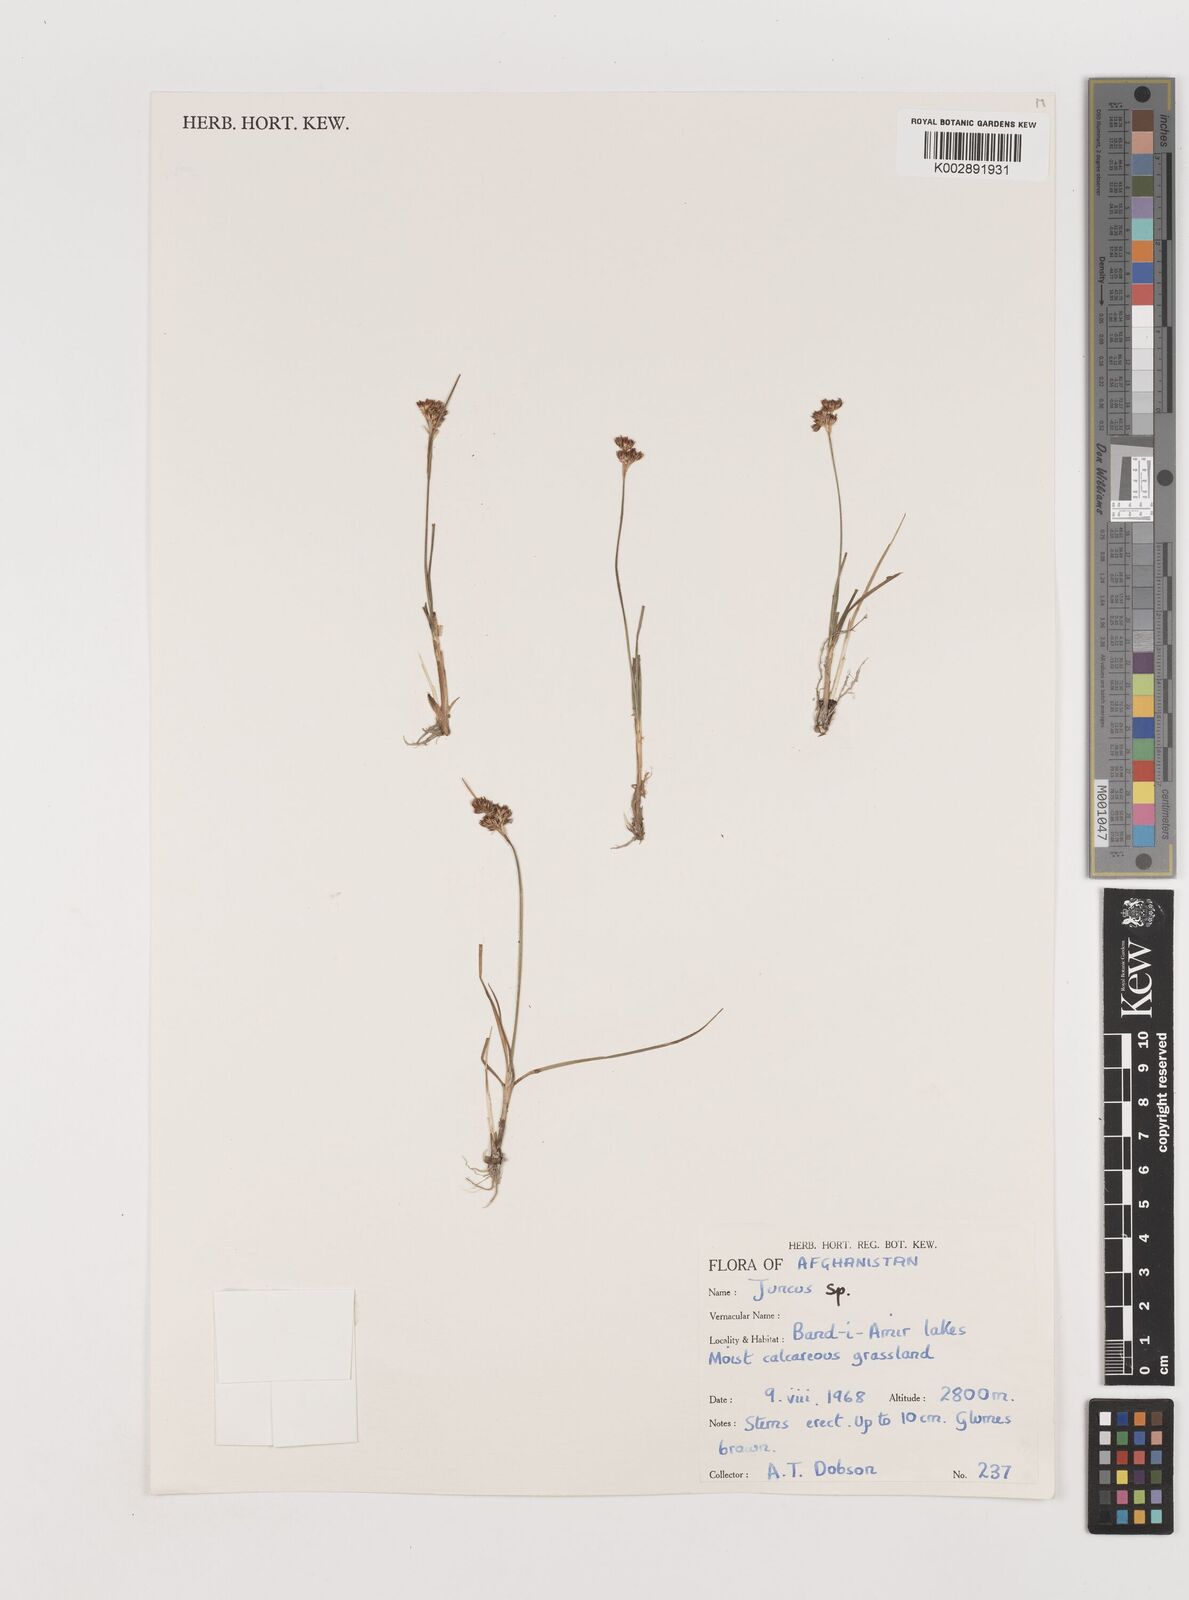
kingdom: Plantae
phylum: Tracheophyta
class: Liliopsida
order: Poales
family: Juncaceae
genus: Juncus
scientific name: Juncus
